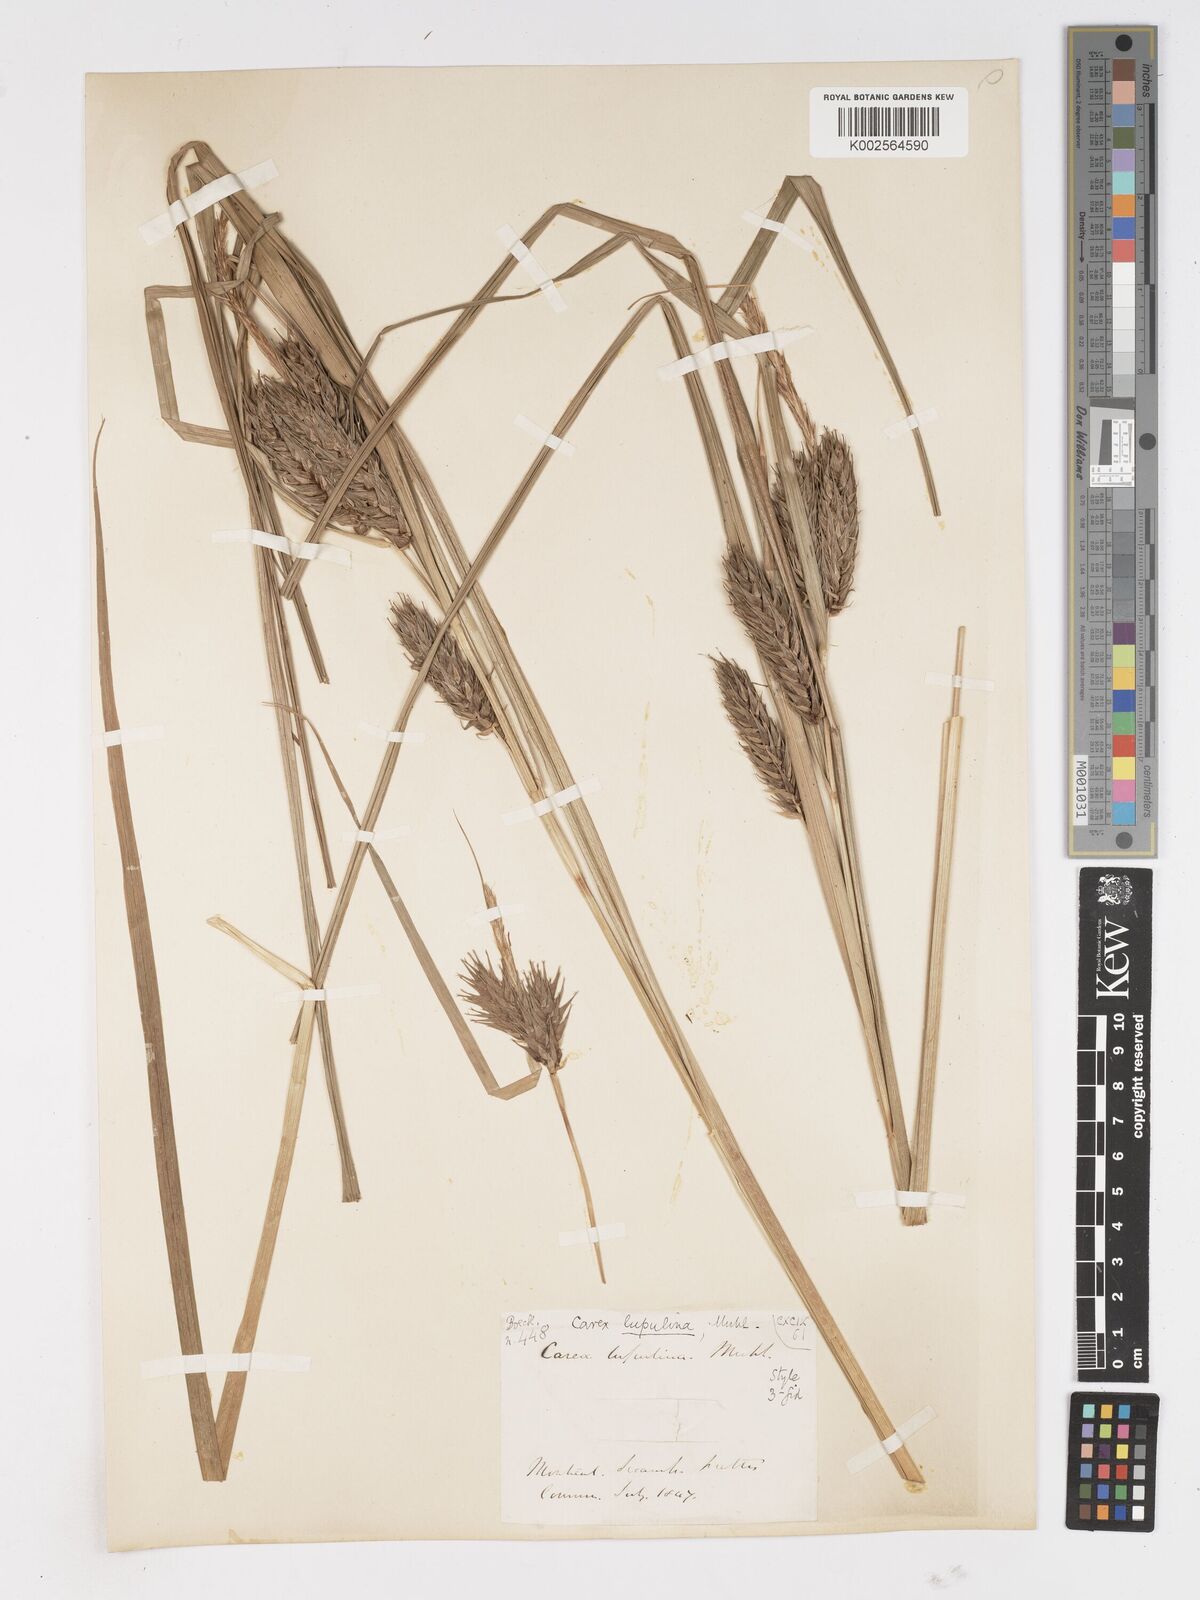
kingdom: Plantae
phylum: Tracheophyta
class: Liliopsida
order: Poales
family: Cyperaceae
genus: Carex
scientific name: Carex lupulina
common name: Hop sedge
